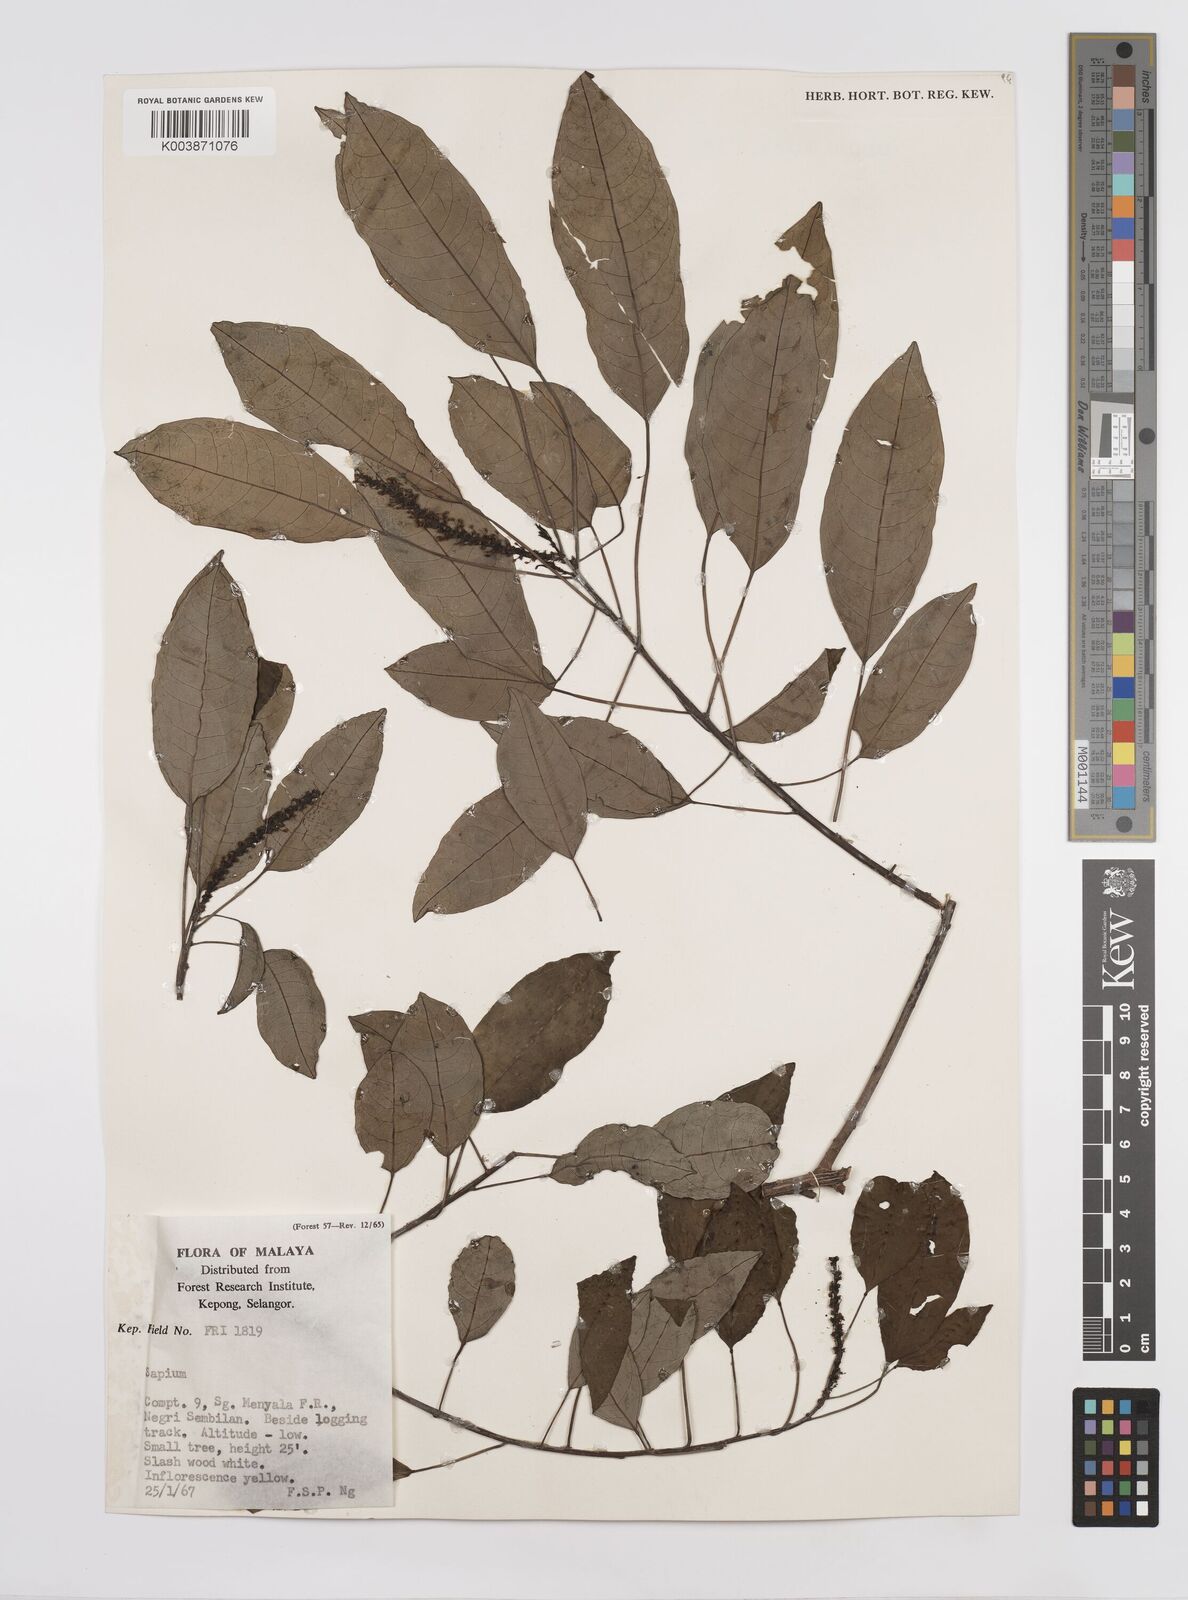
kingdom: Plantae
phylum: Tracheophyta
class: Magnoliopsida
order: Malpighiales
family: Euphorbiaceae
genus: Triadica
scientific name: Triadica cochinchinensis
